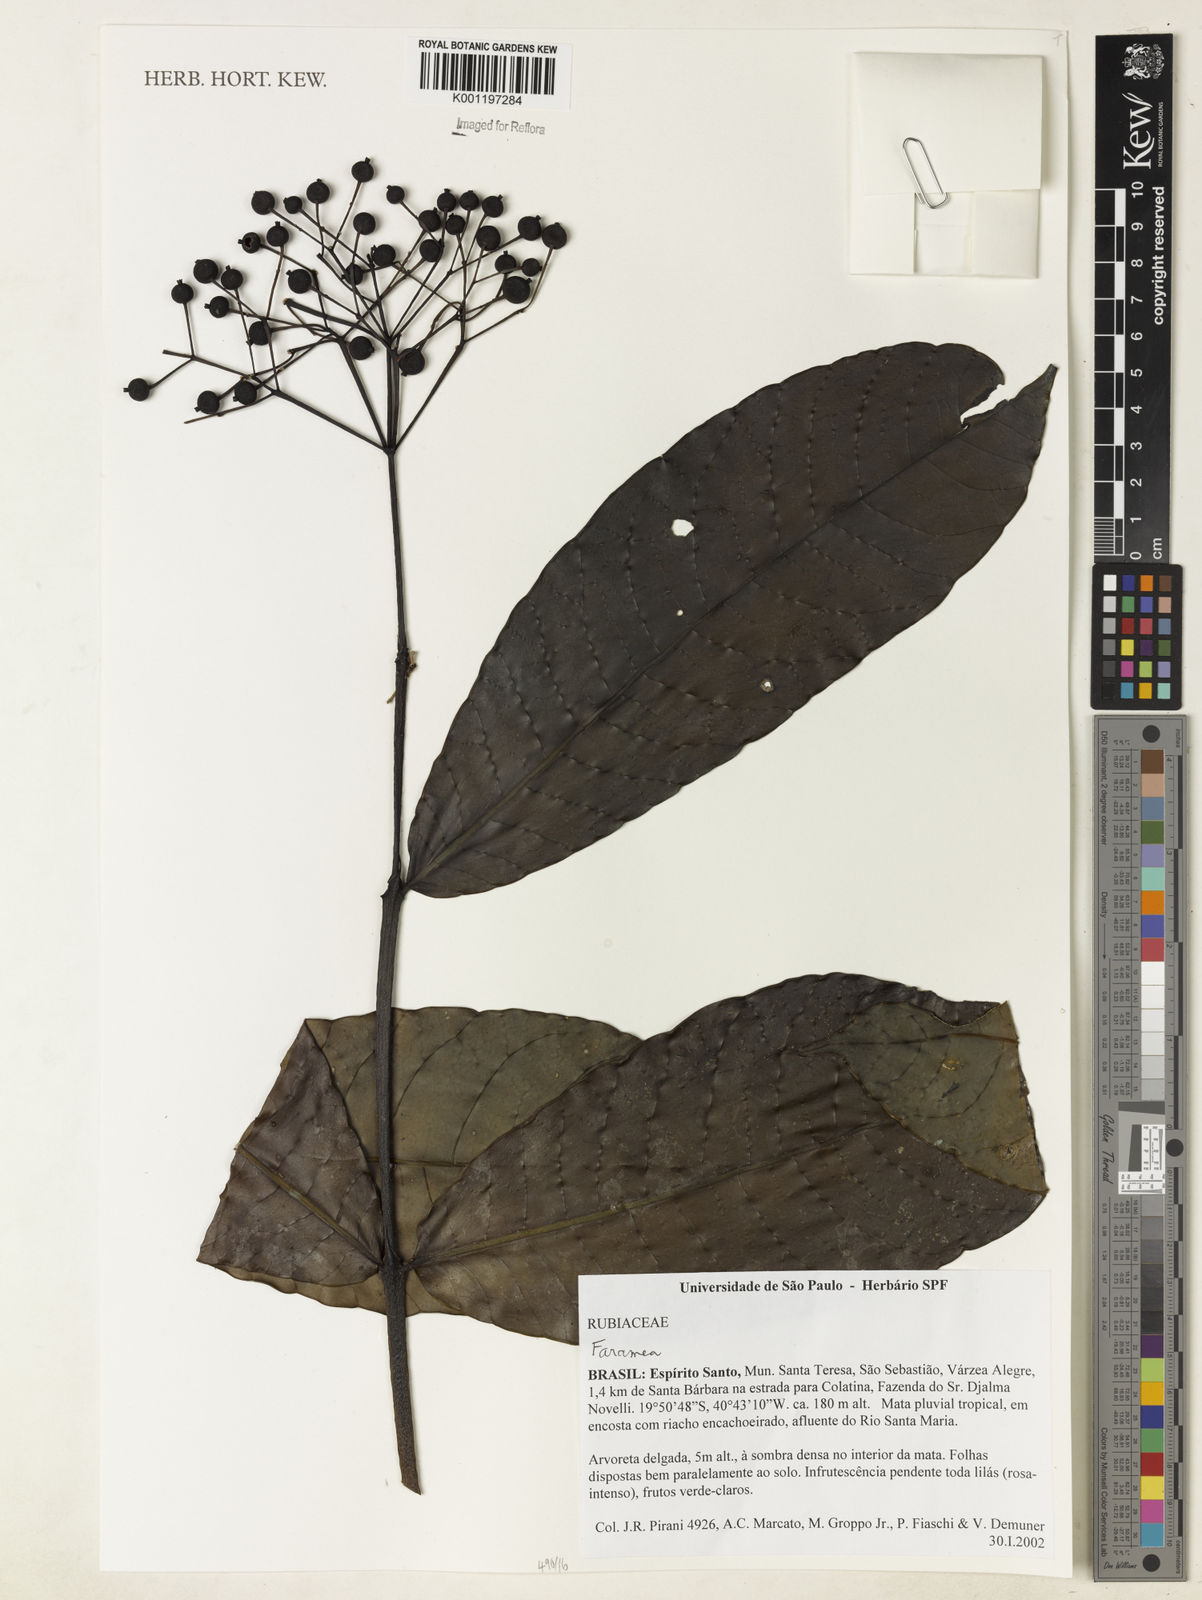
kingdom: Plantae
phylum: Tracheophyta
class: Magnoliopsida
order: Gentianales
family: Rubiaceae
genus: Faramea
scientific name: Faramea
